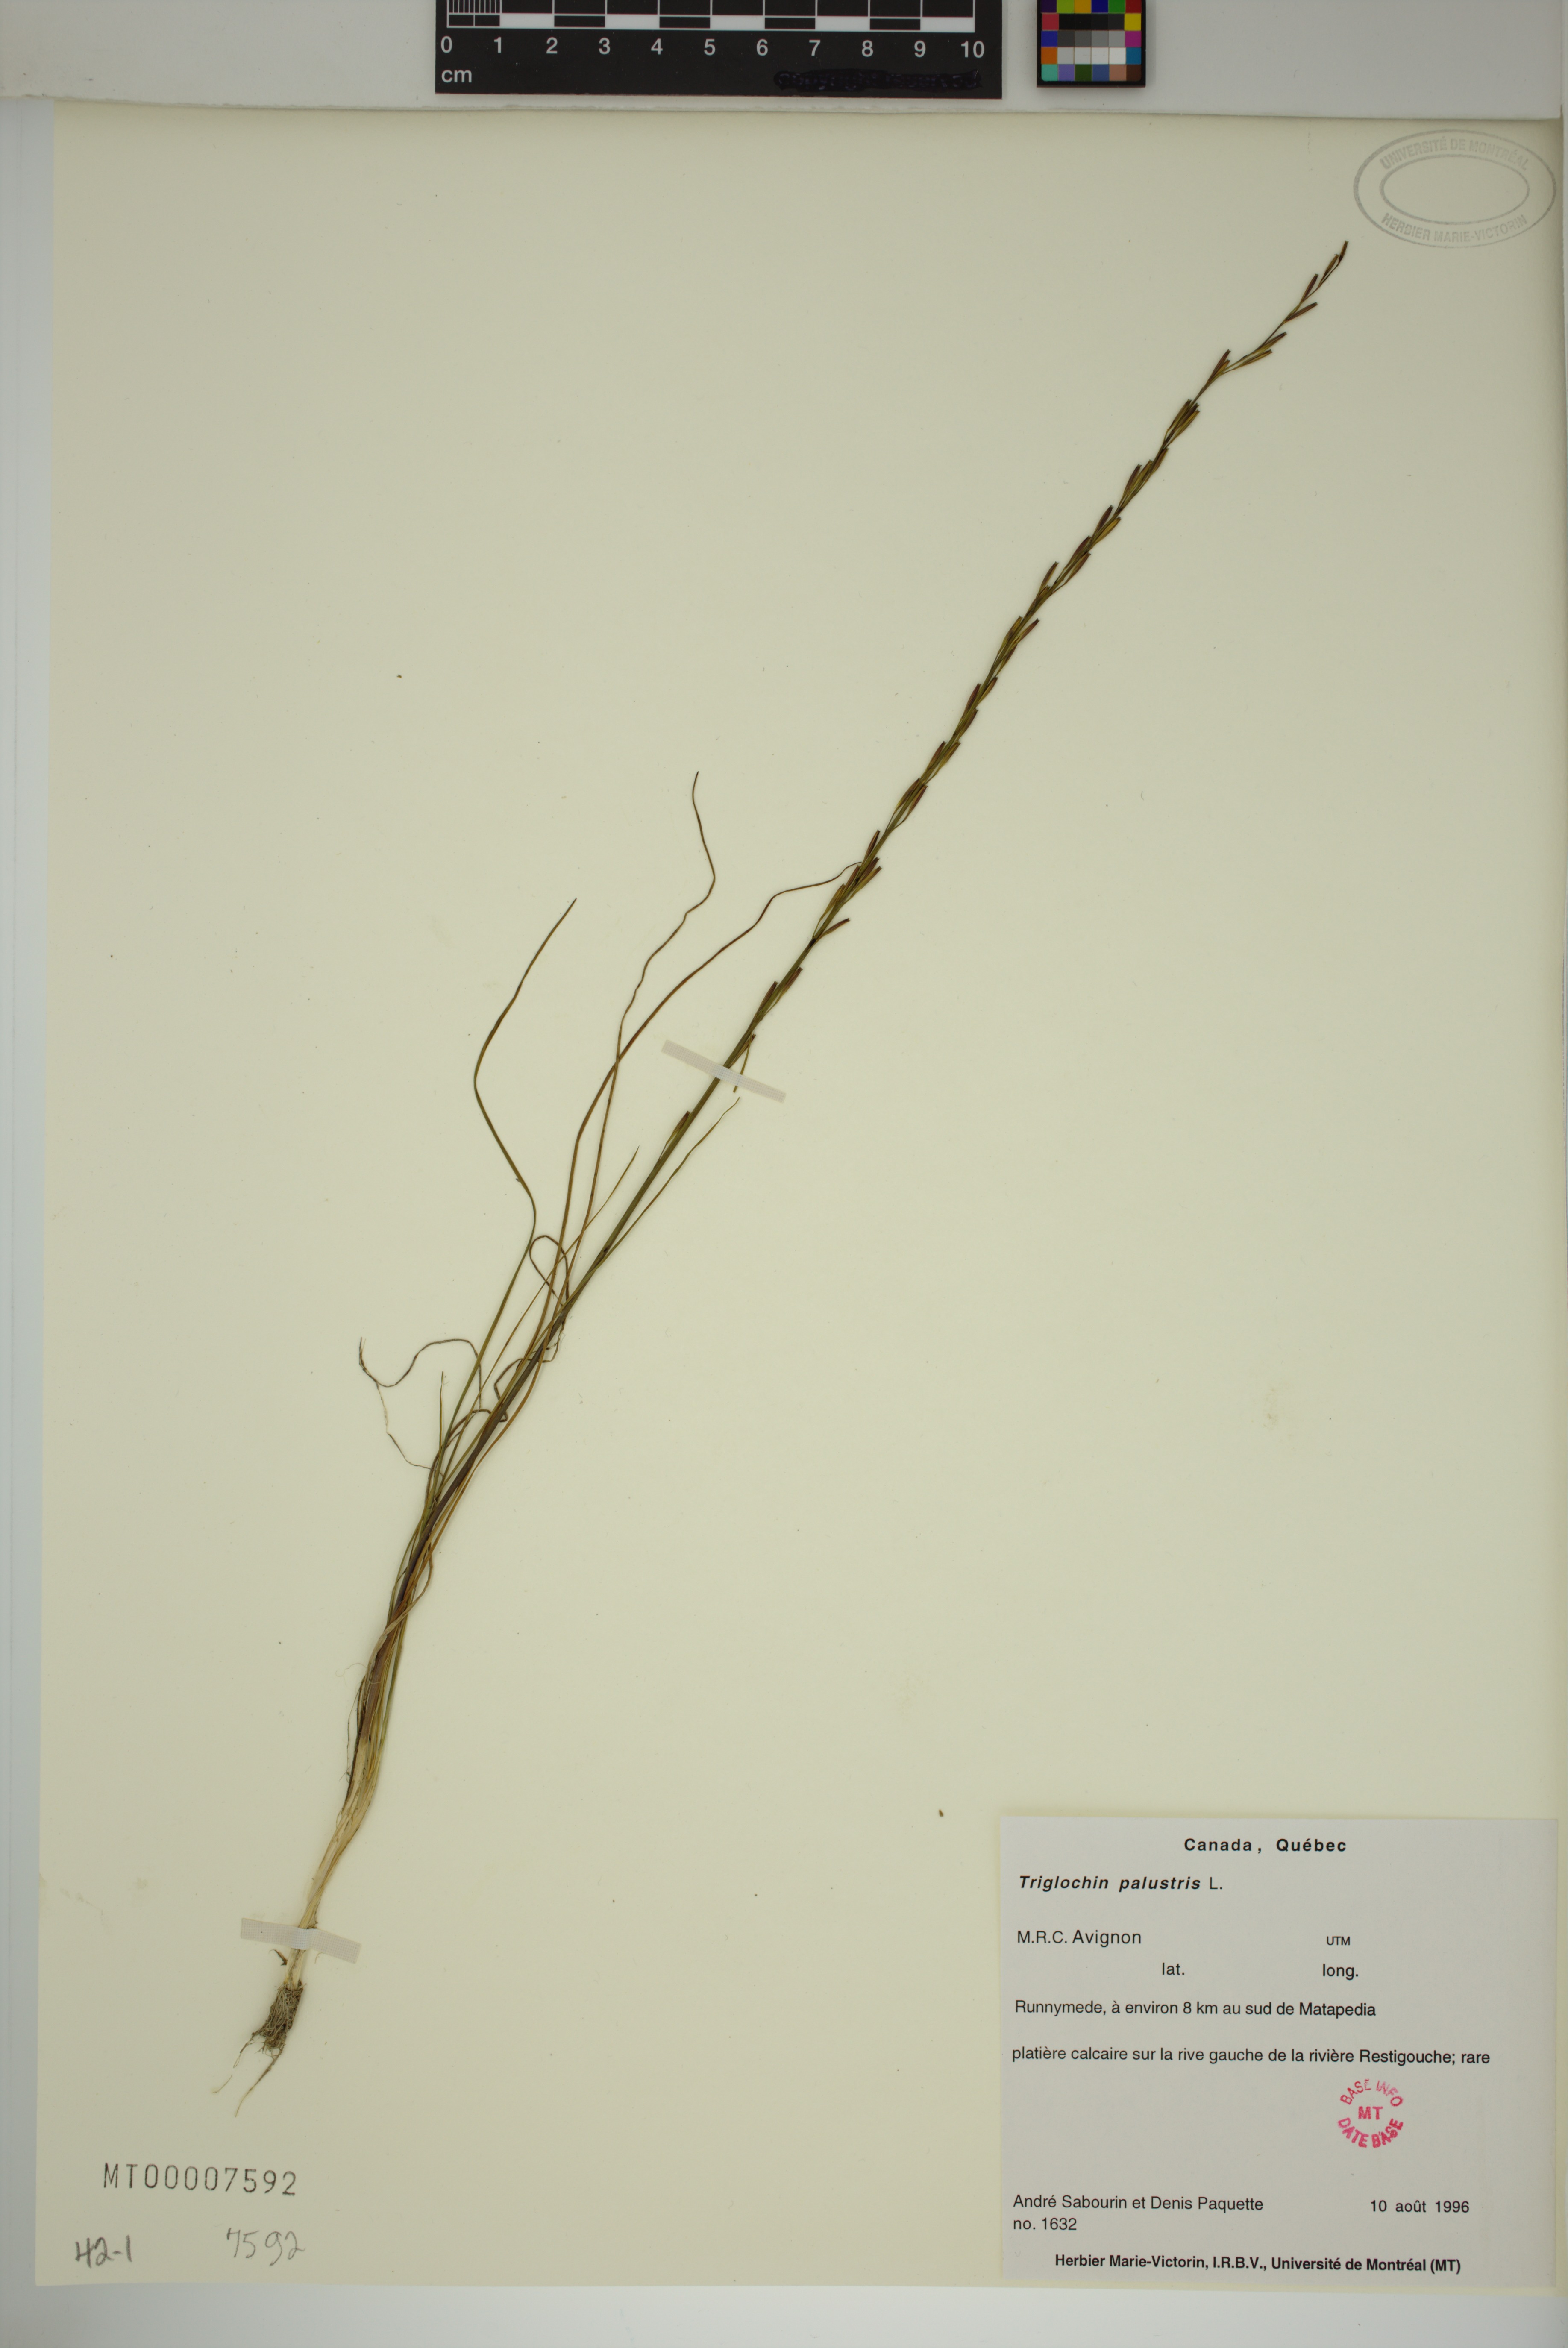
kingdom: Plantae
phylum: Tracheophyta
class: Liliopsida
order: Alismatales
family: Juncaginaceae
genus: Triglochin
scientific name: Triglochin palustris
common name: Marsh arrowgrass
